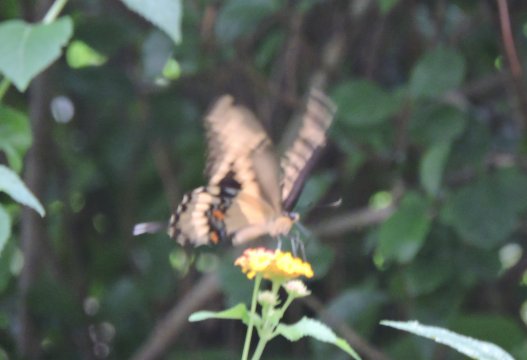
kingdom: Animalia
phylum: Arthropoda
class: Insecta
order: Lepidoptera
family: Papilionidae
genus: Papilio
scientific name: Papilio cresphontes
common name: Eastern Giant Swallowtail
